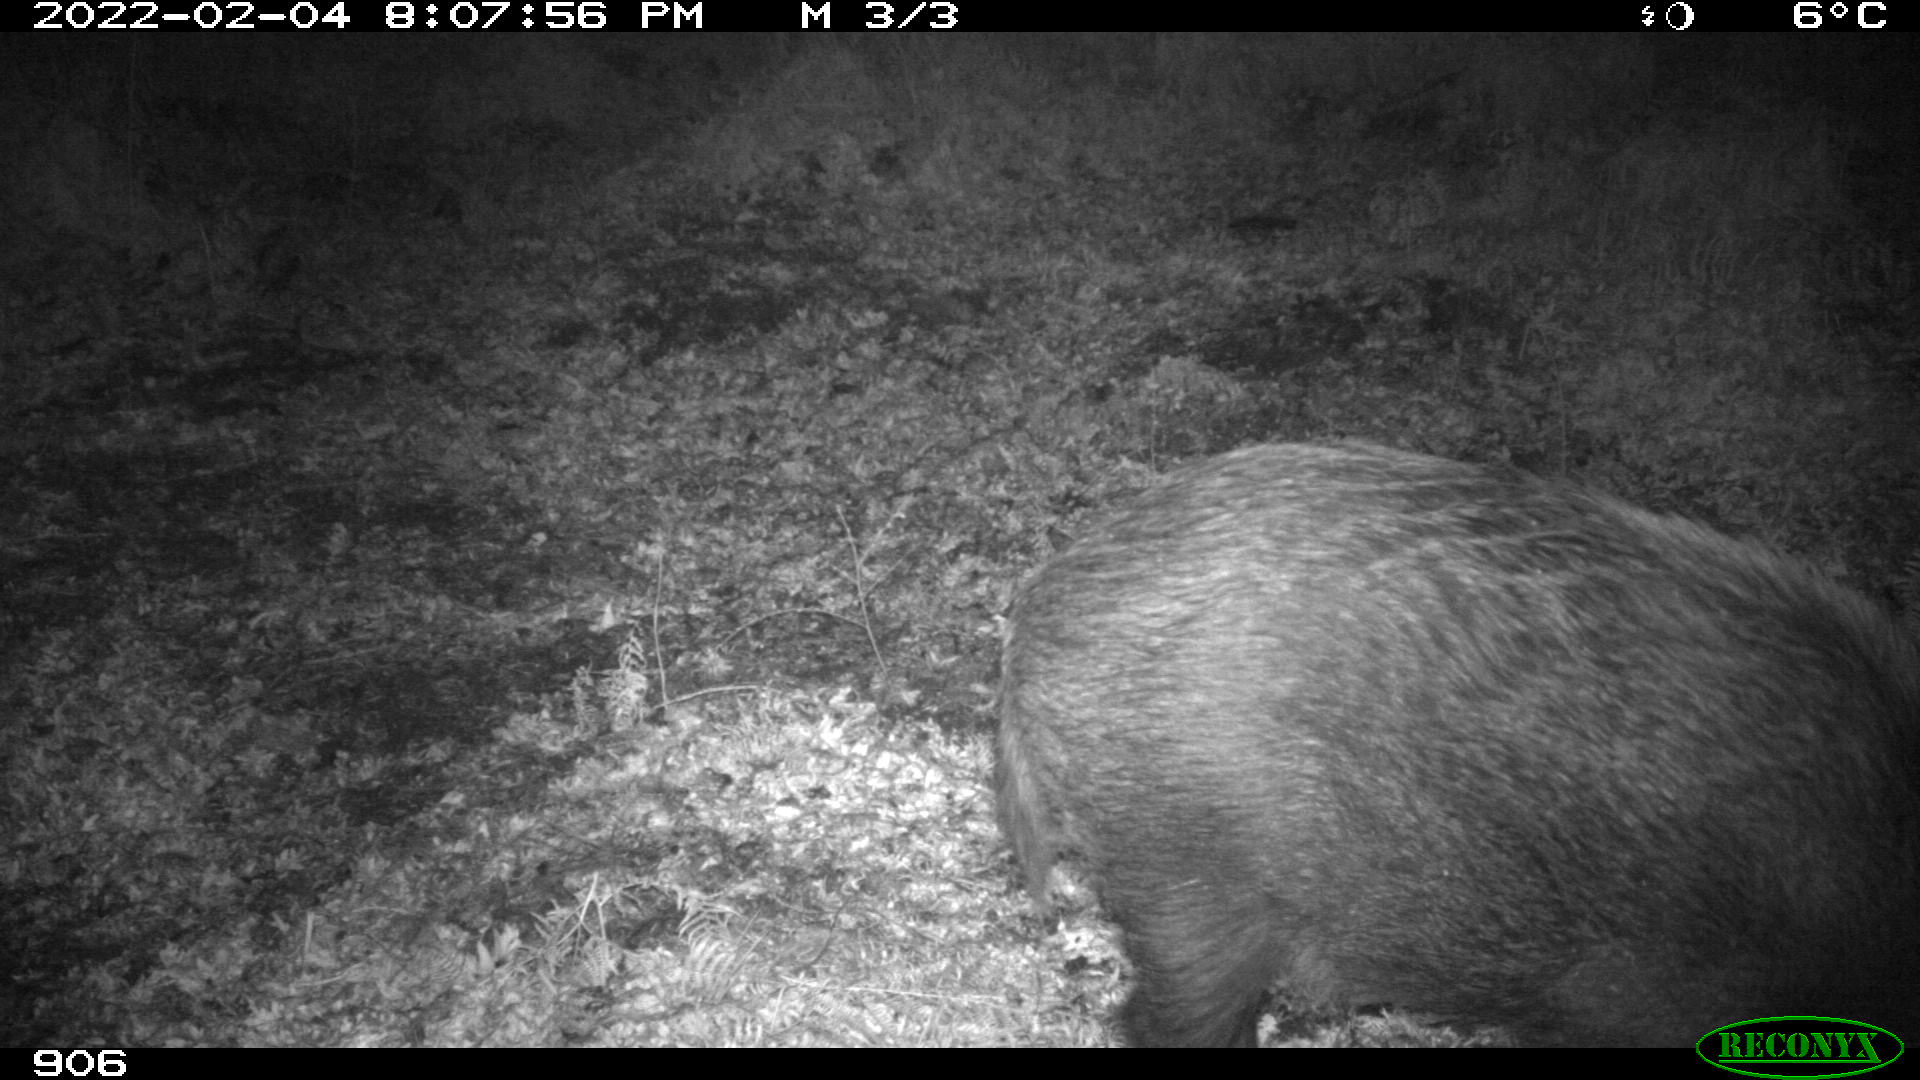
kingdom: Animalia
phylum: Chordata
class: Mammalia
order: Artiodactyla
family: Suidae
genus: Sus
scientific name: Sus scrofa
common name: Wild boar
